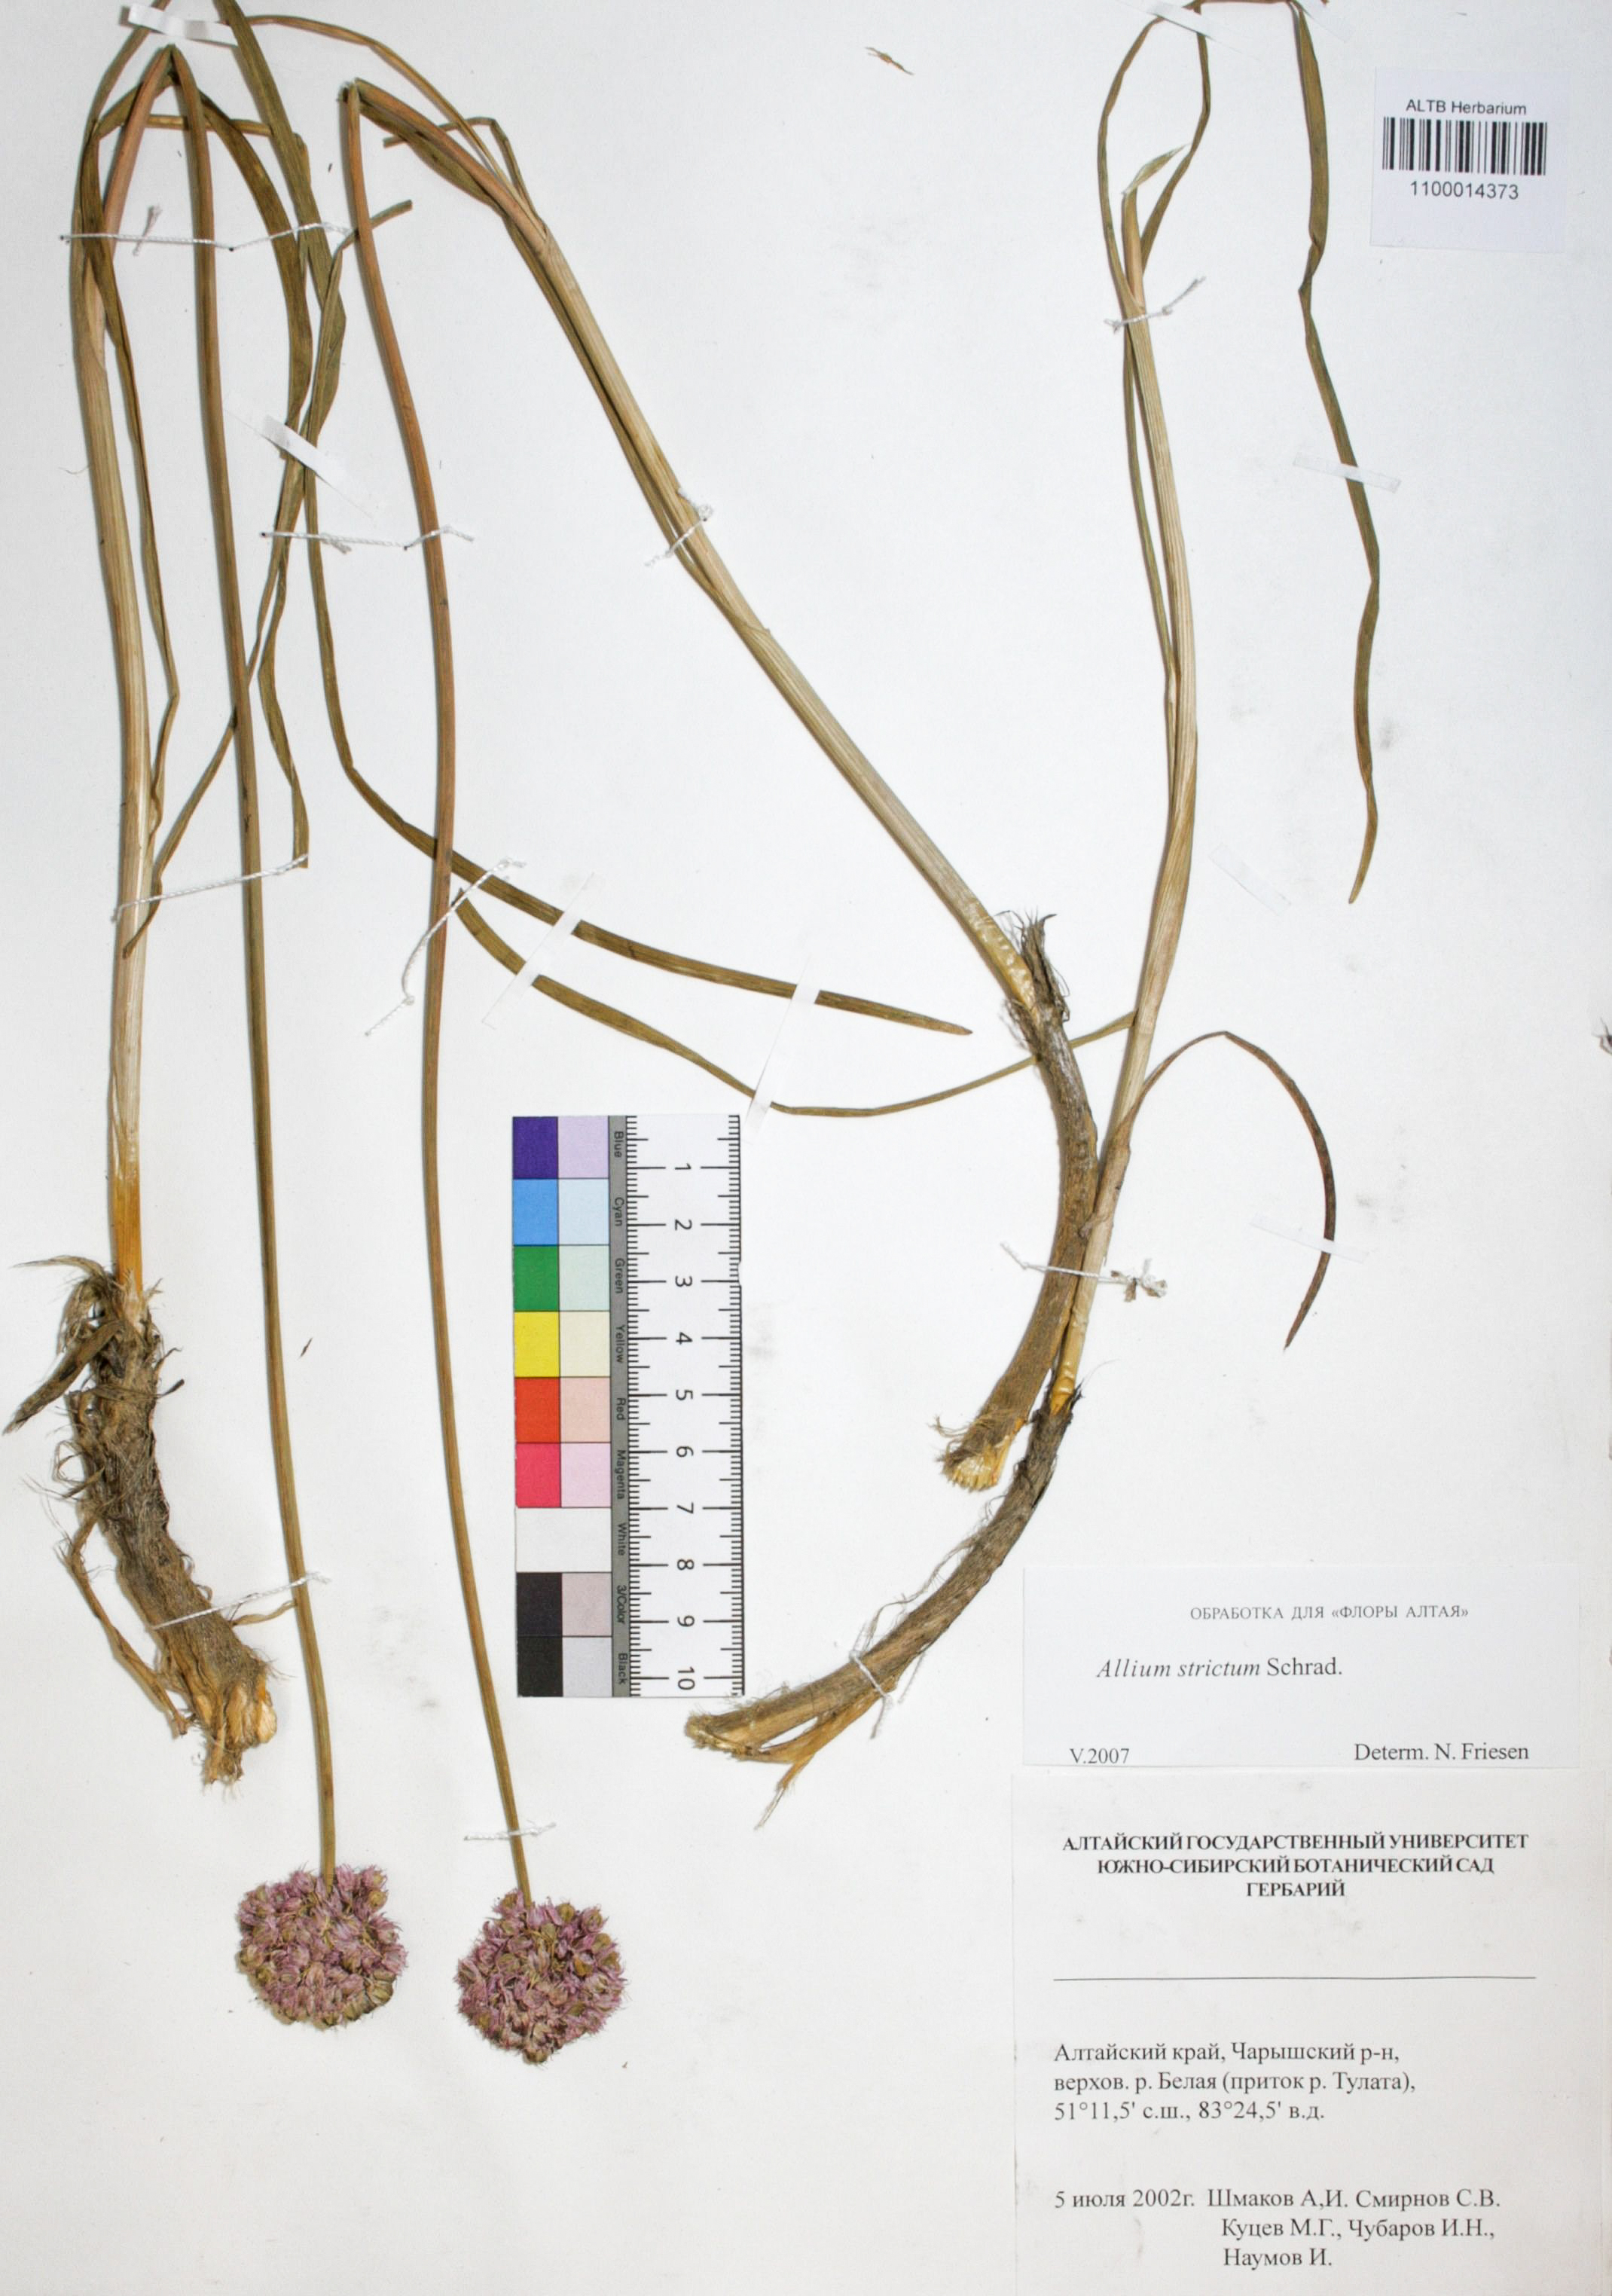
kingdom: Plantae
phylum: Tracheophyta
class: Liliopsida
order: Asparagales
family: Amaryllidaceae
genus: Allium
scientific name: Allium strictum
